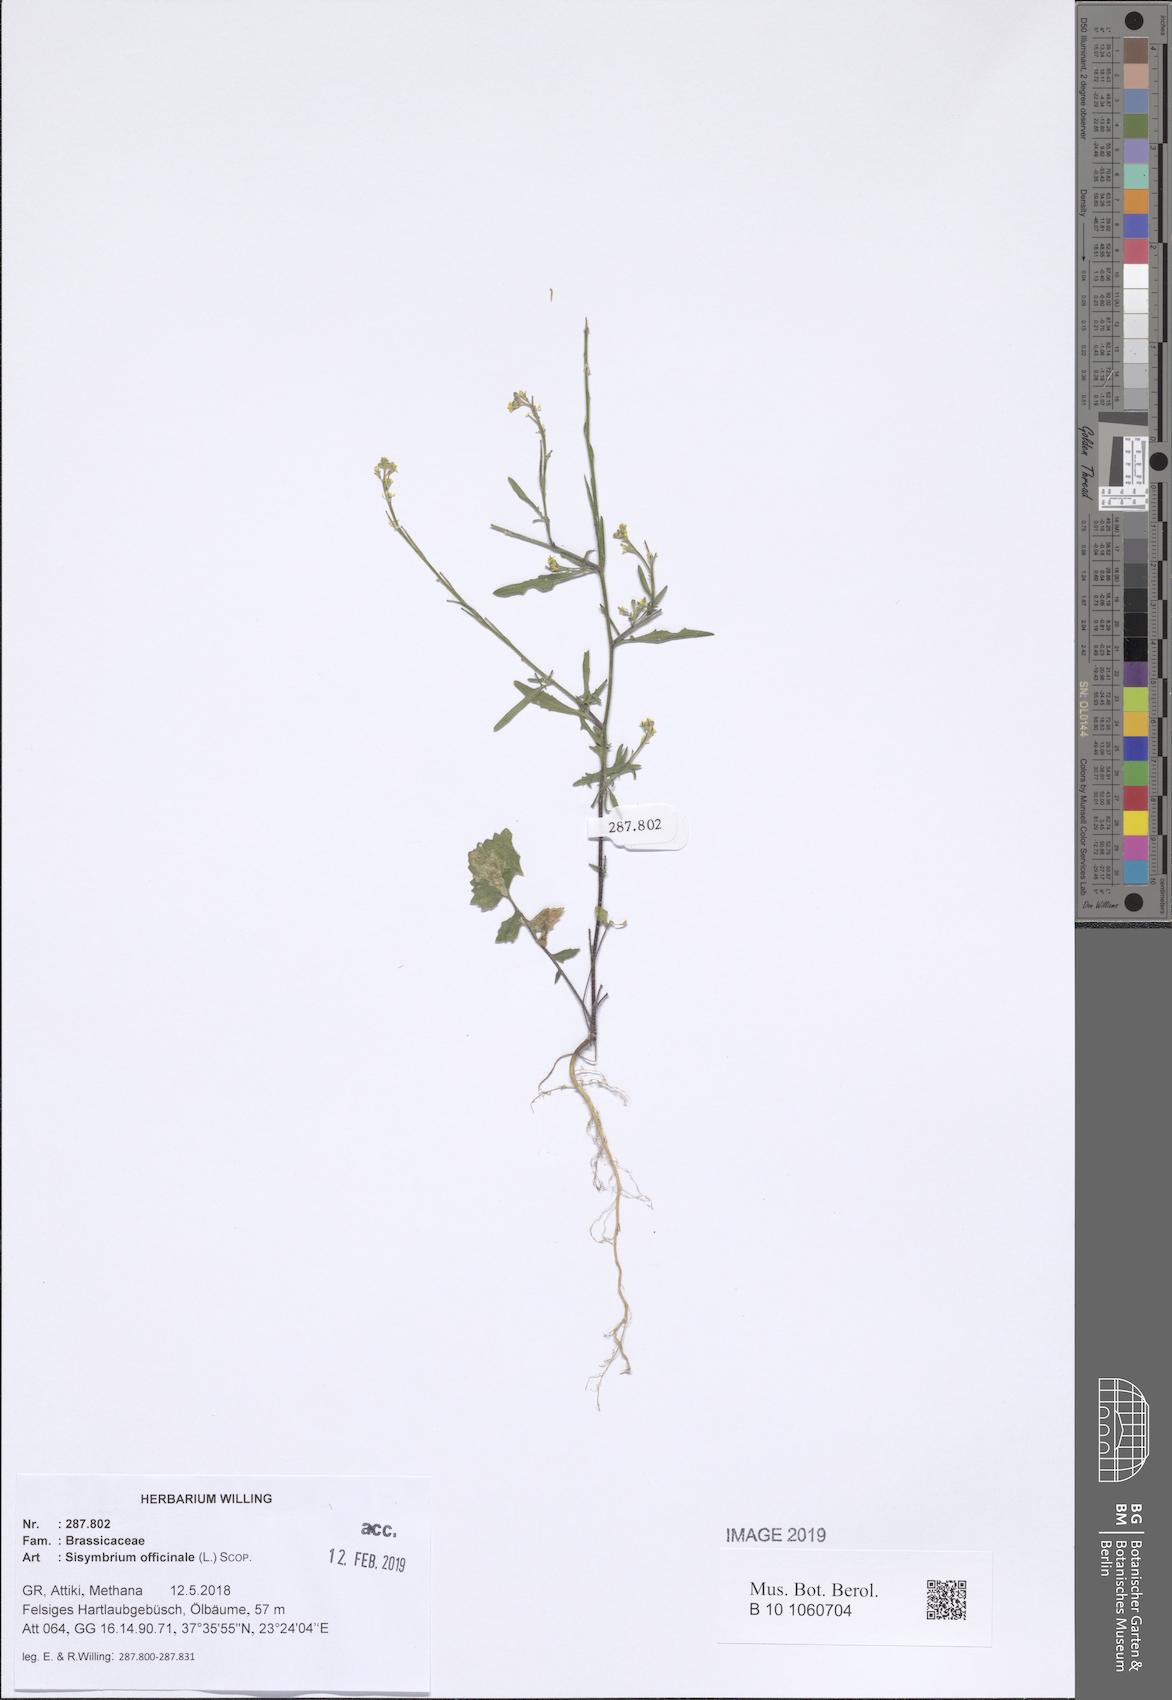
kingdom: Plantae
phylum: Tracheophyta
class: Magnoliopsida
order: Brassicales
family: Brassicaceae
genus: Sisymbrium
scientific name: Sisymbrium officinale
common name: Hedge mustard
